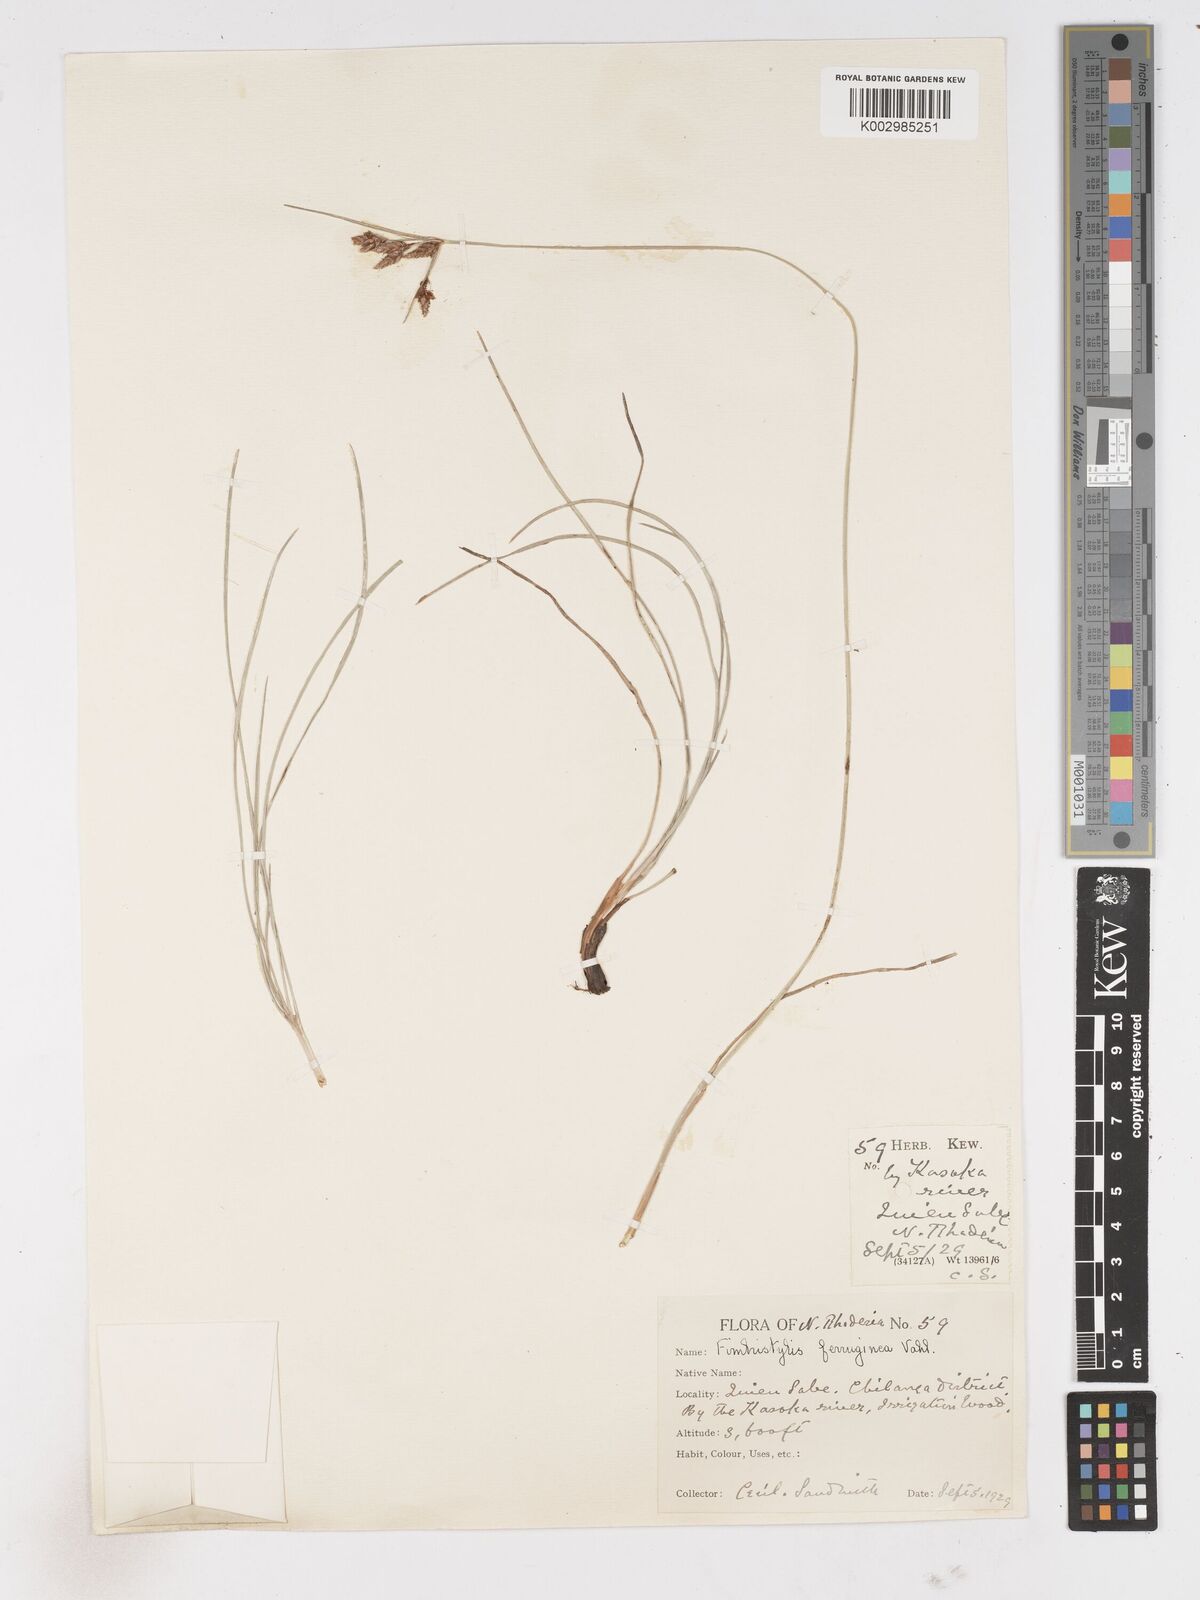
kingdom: Plantae
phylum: Tracheophyta
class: Liliopsida
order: Poales
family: Cyperaceae
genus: Fimbristylis
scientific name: Fimbristylis ferruginea
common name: West indian fimbry
